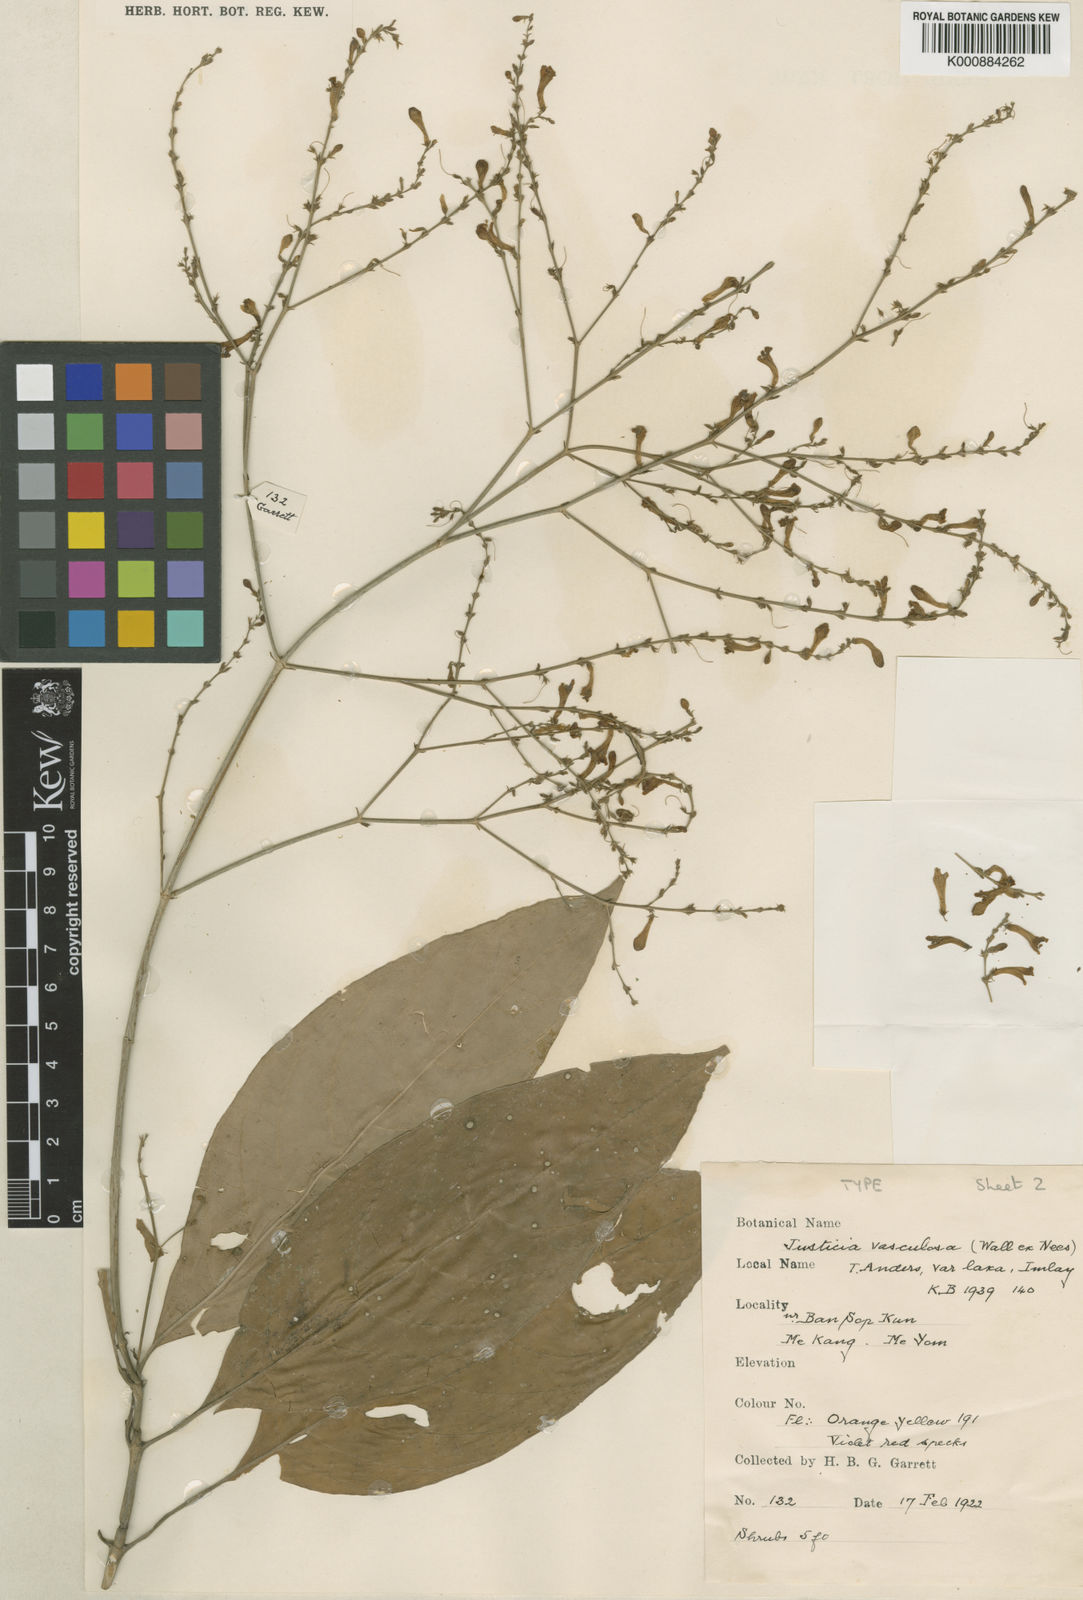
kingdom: Plantae
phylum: Tracheophyta
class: Magnoliopsida
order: Lamiales
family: Acanthaceae
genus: Justicia
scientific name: Justicia imlayae
